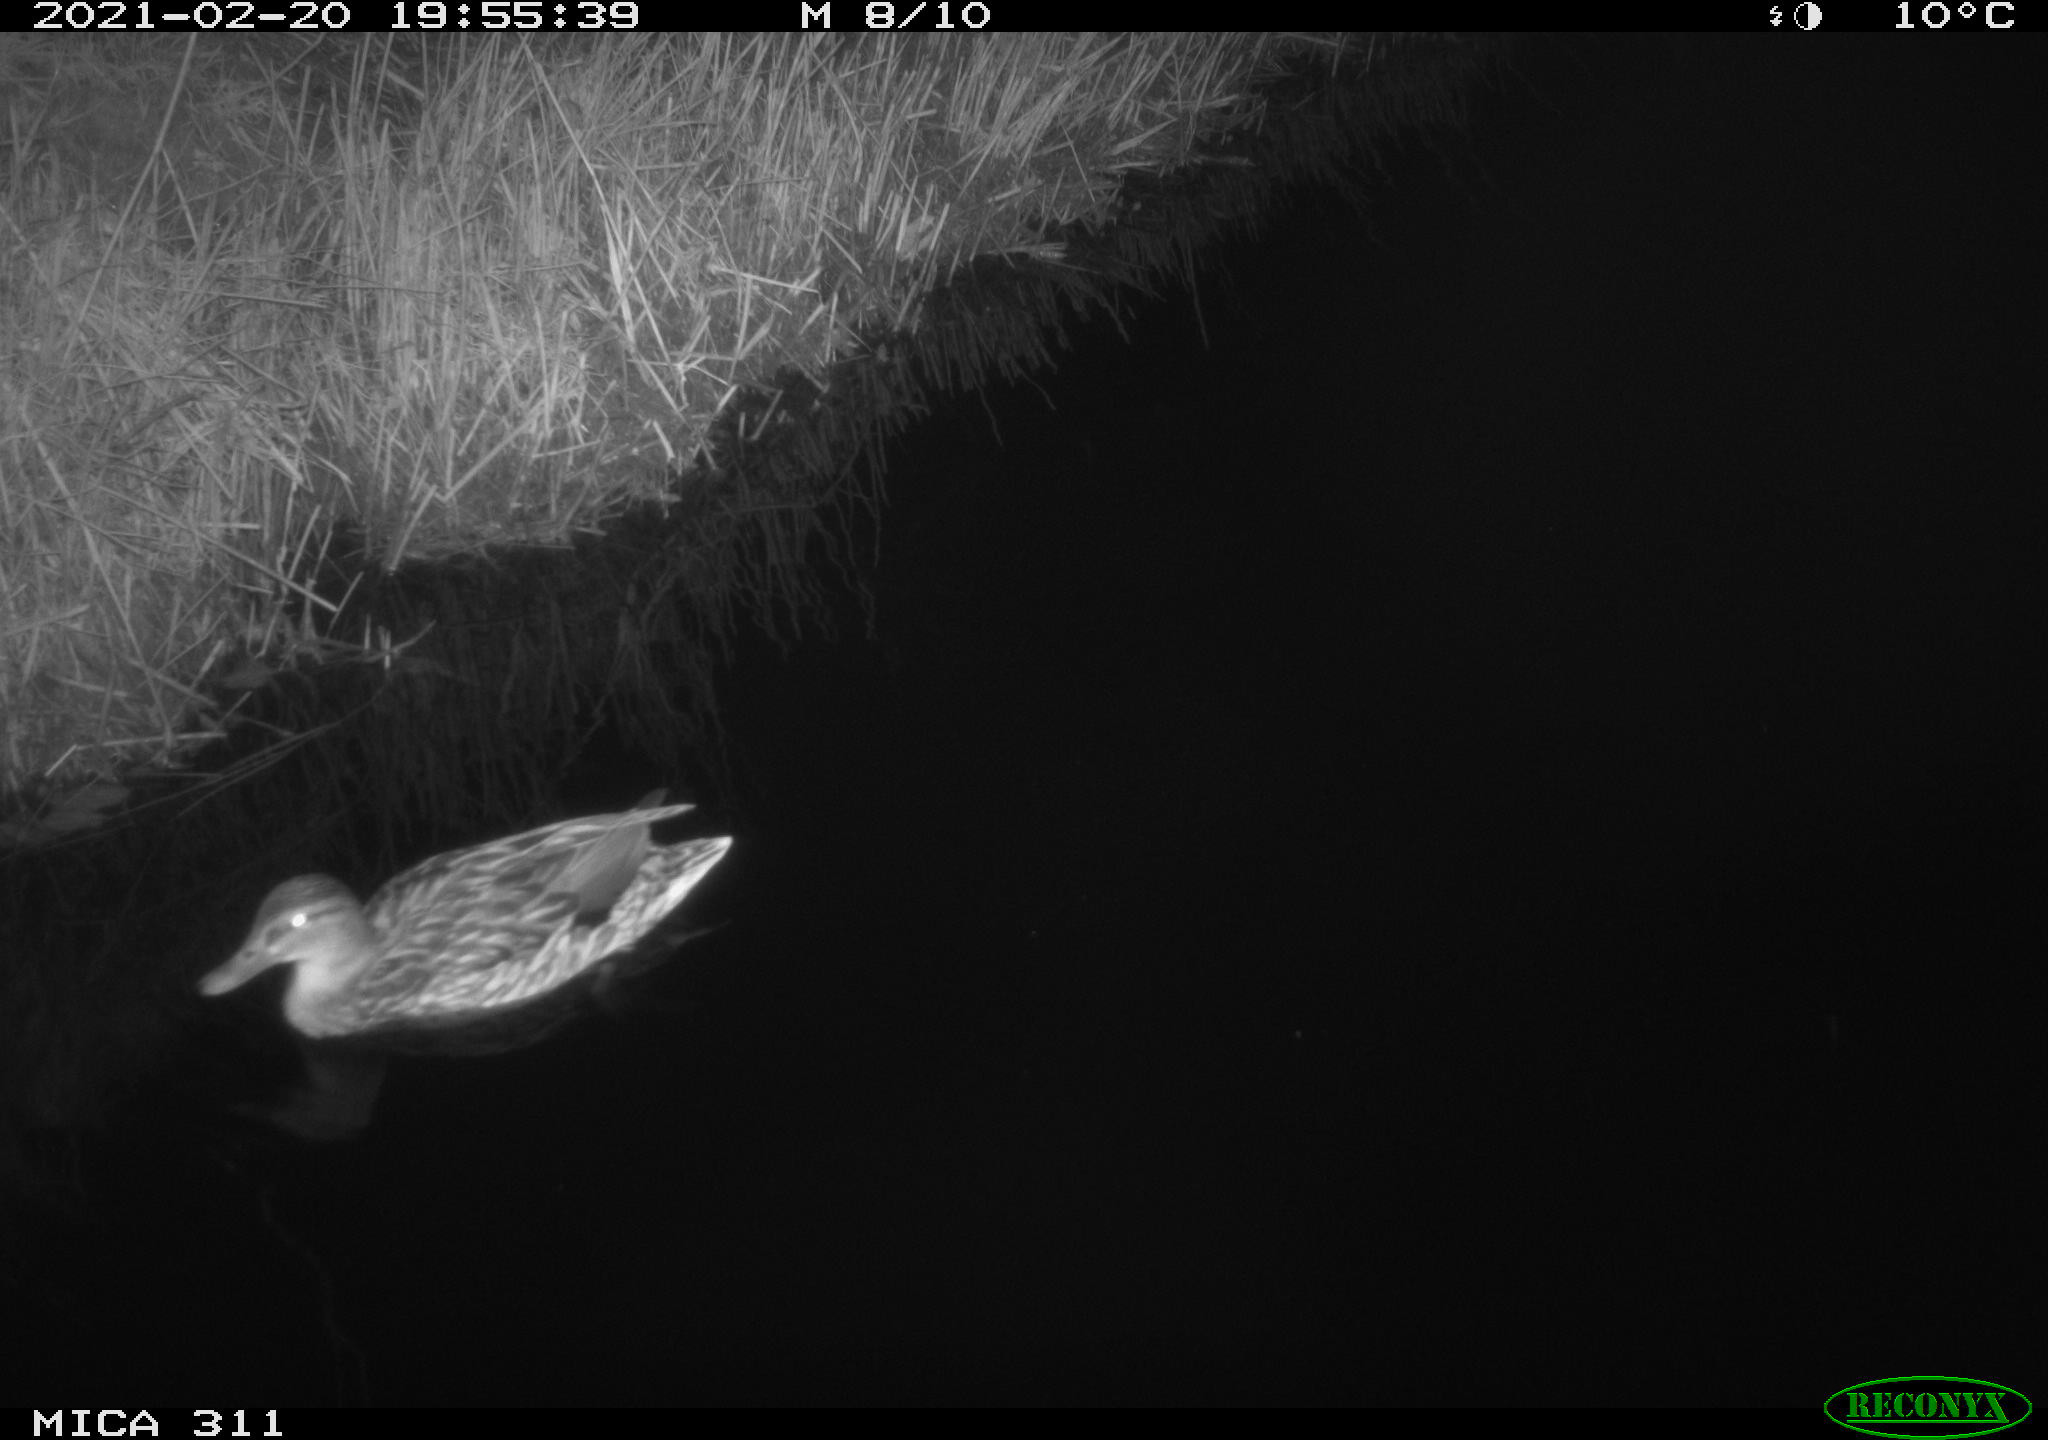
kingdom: Animalia
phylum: Chordata
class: Aves
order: Anseriformes
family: Anatidae
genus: Anas
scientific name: Anas
